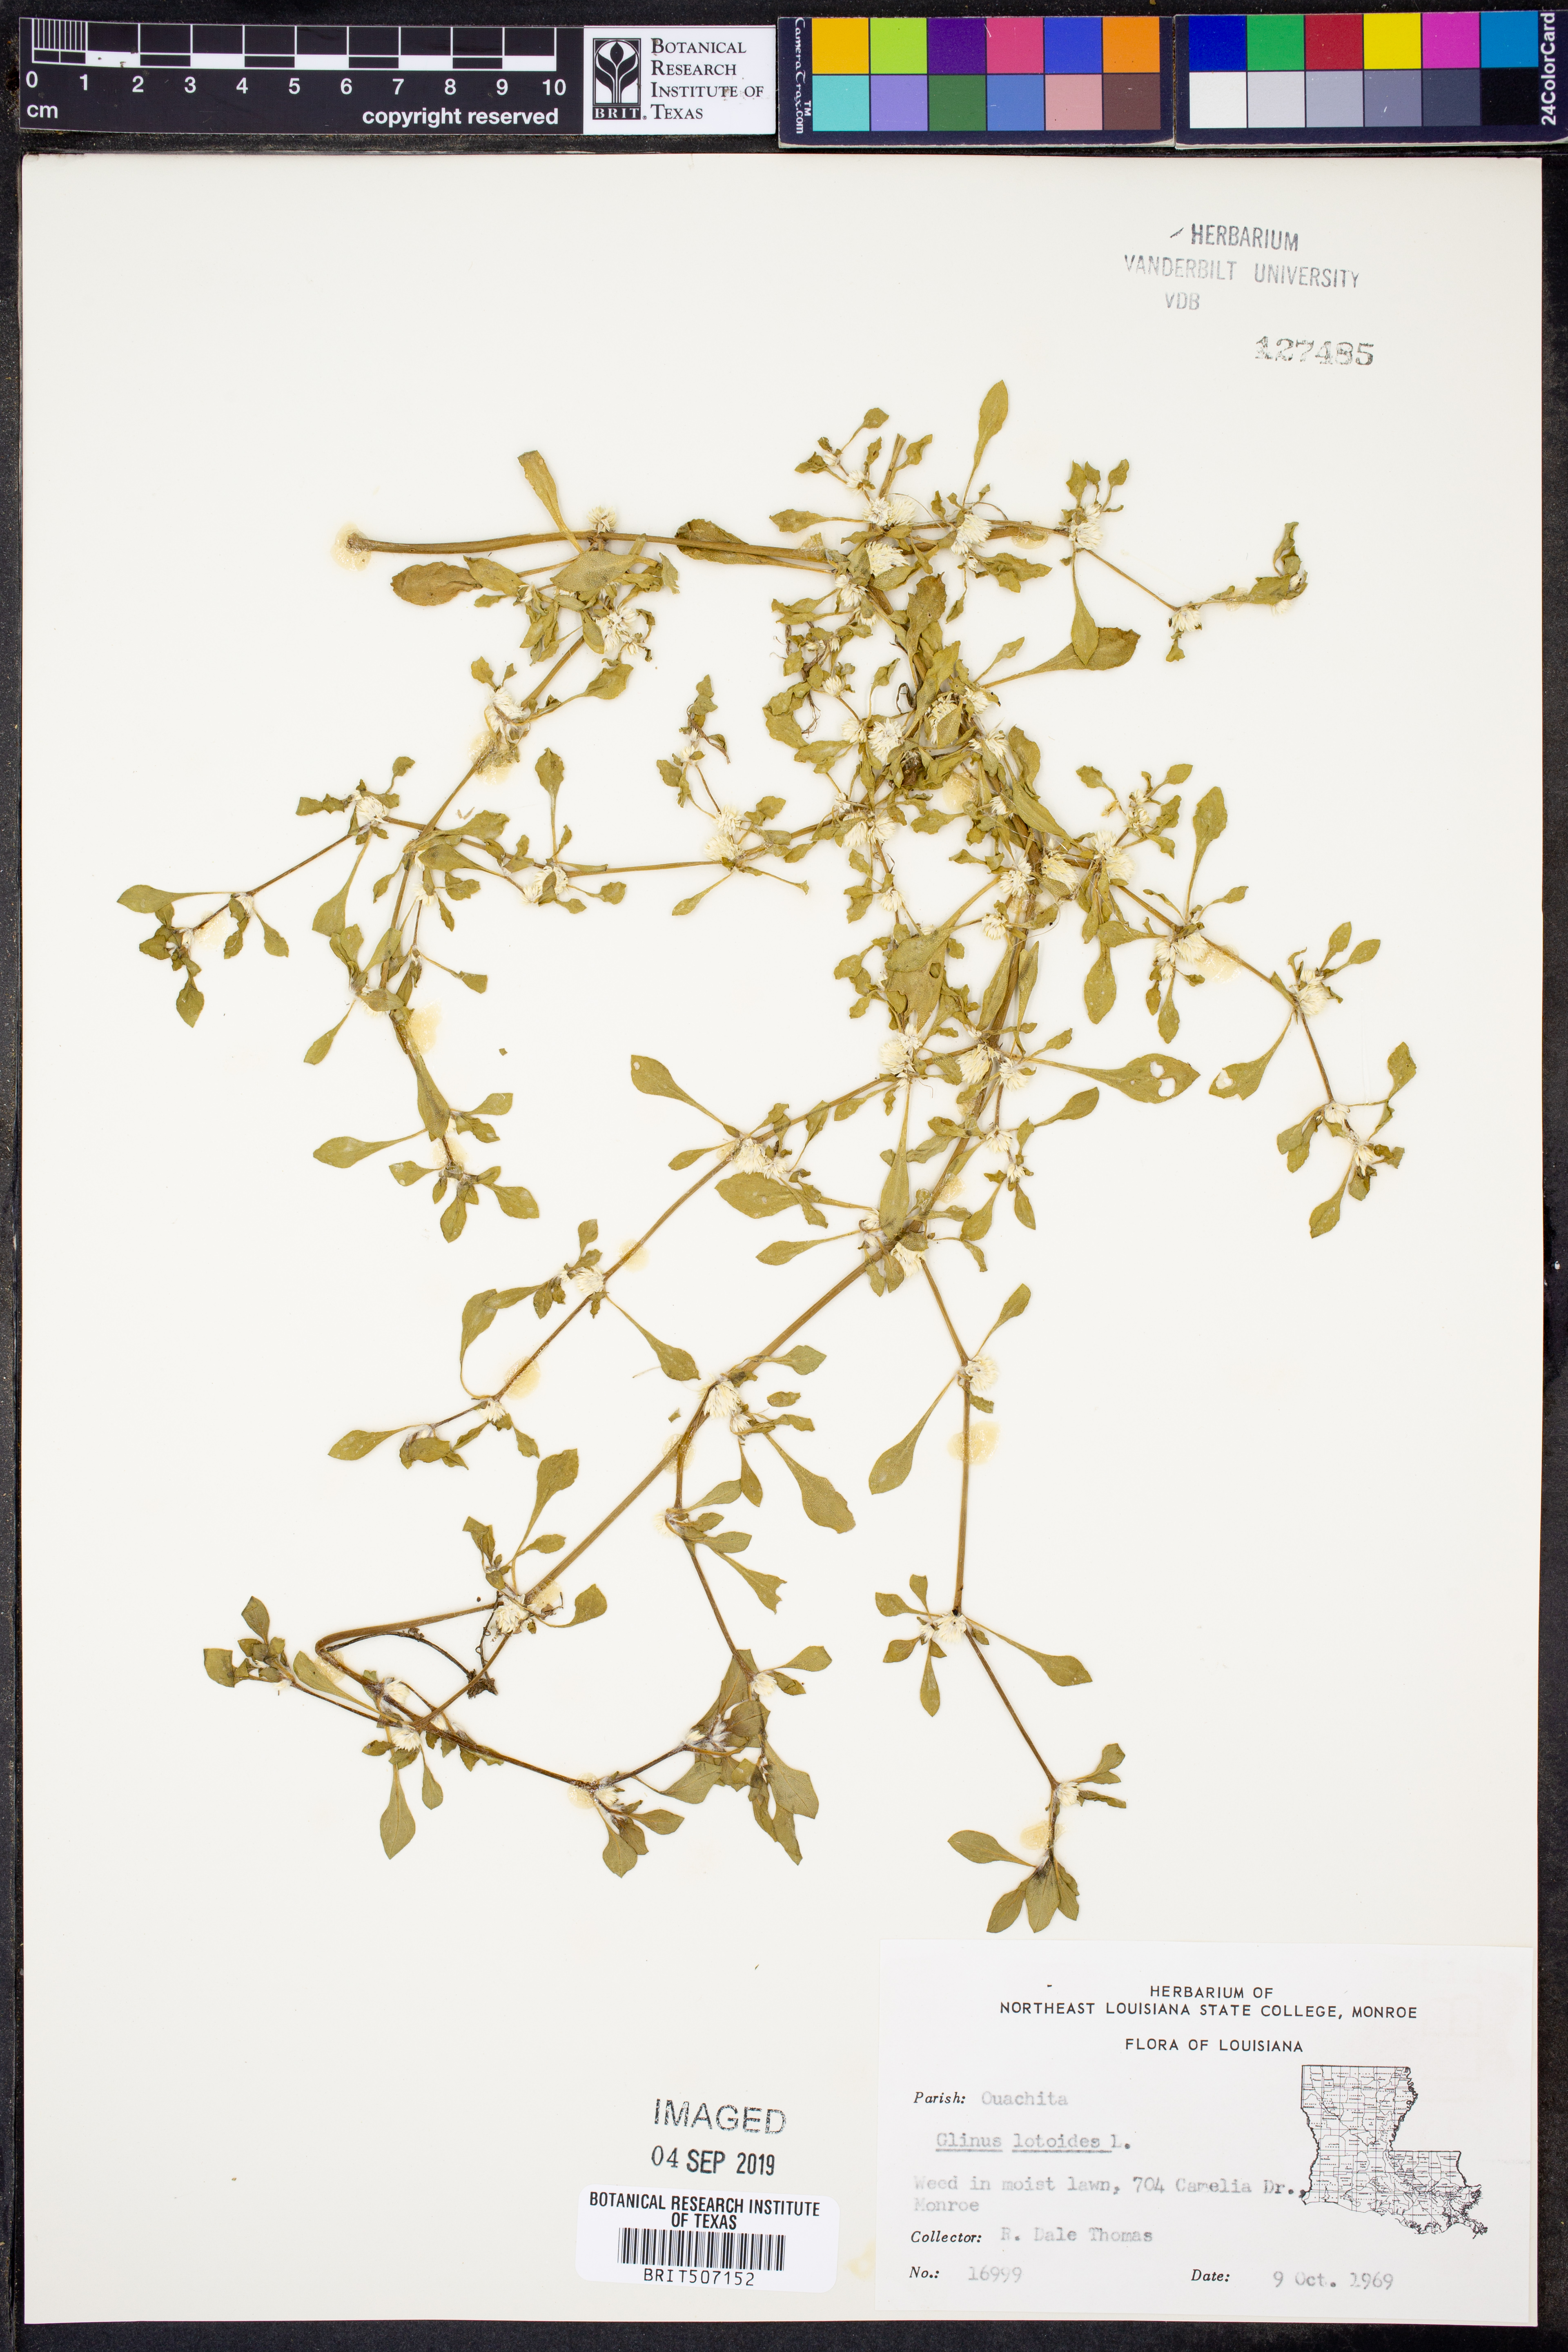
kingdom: Plantae
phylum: Tracheophyta
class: Magnoliopsida
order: Caryophyllales
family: Molluginaceae
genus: Glinus
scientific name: Glinus lotoides
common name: Lotus sweetjuice
